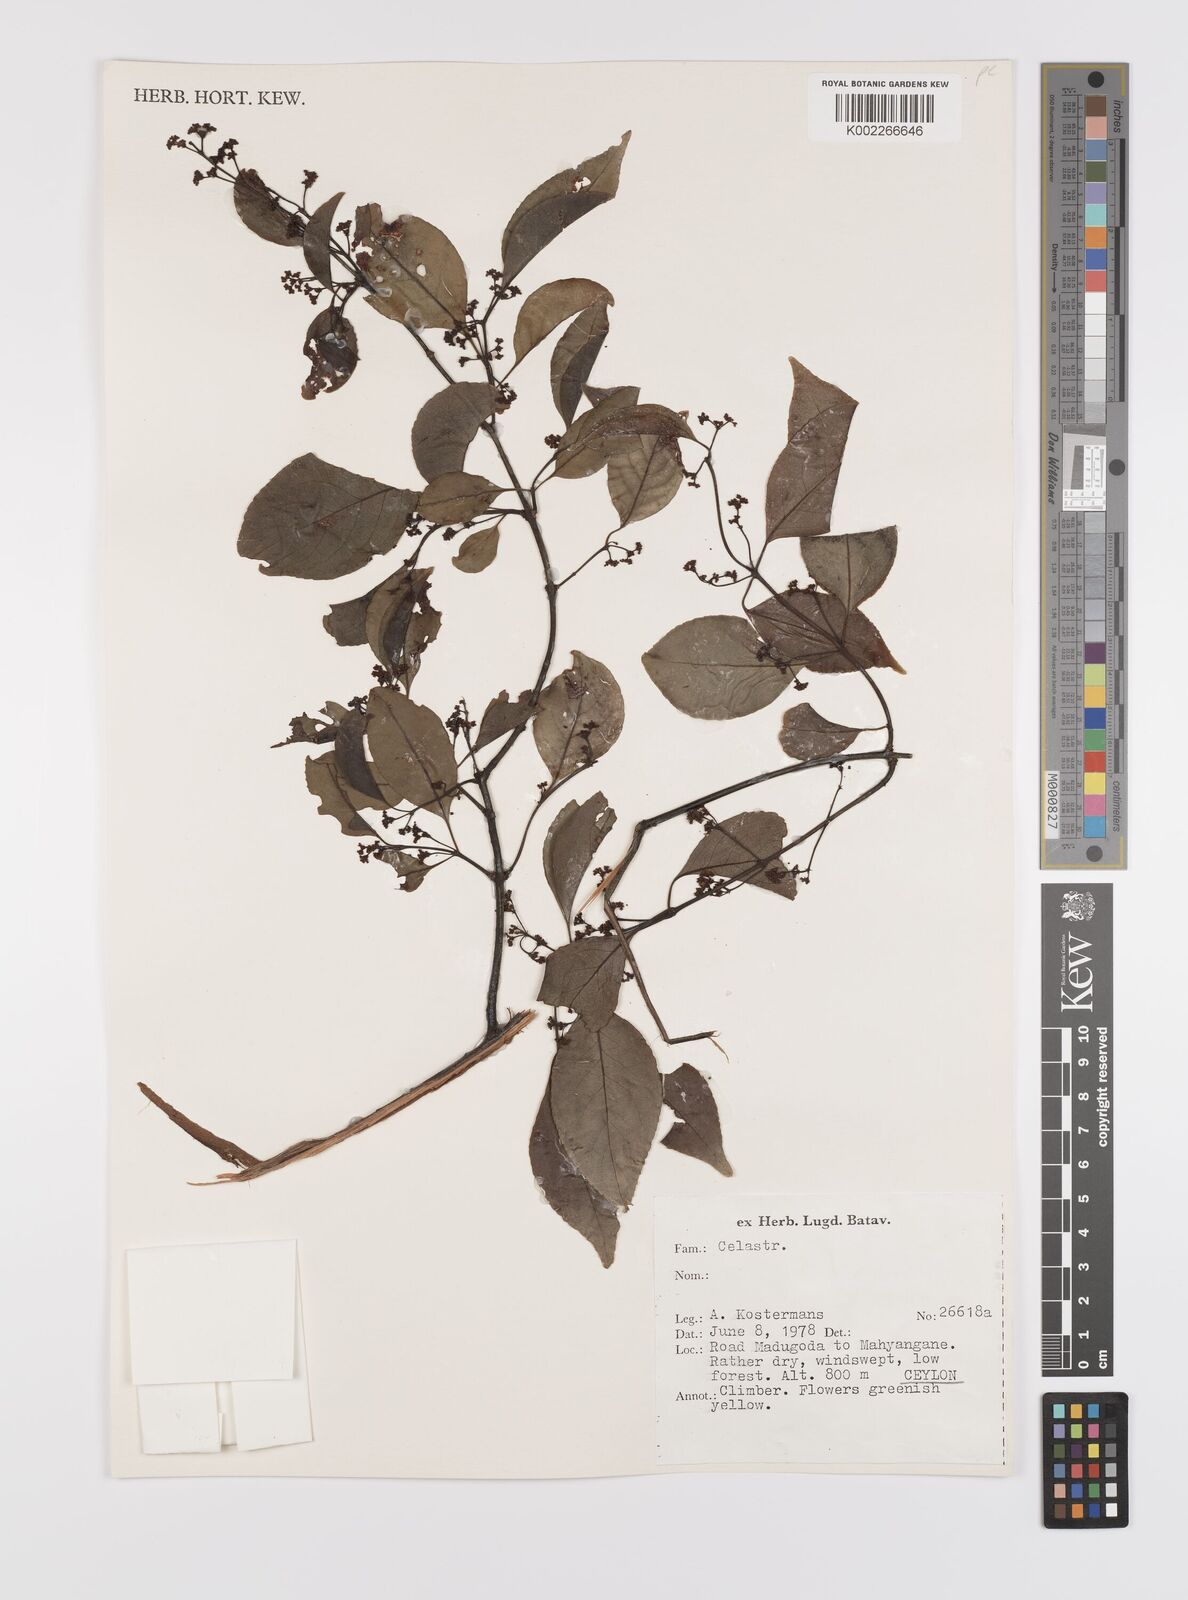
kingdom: Plantae
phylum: Tracheophyta
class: Magnoliopsida
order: Celastrales
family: Celastraceae
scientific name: Celastraceae
